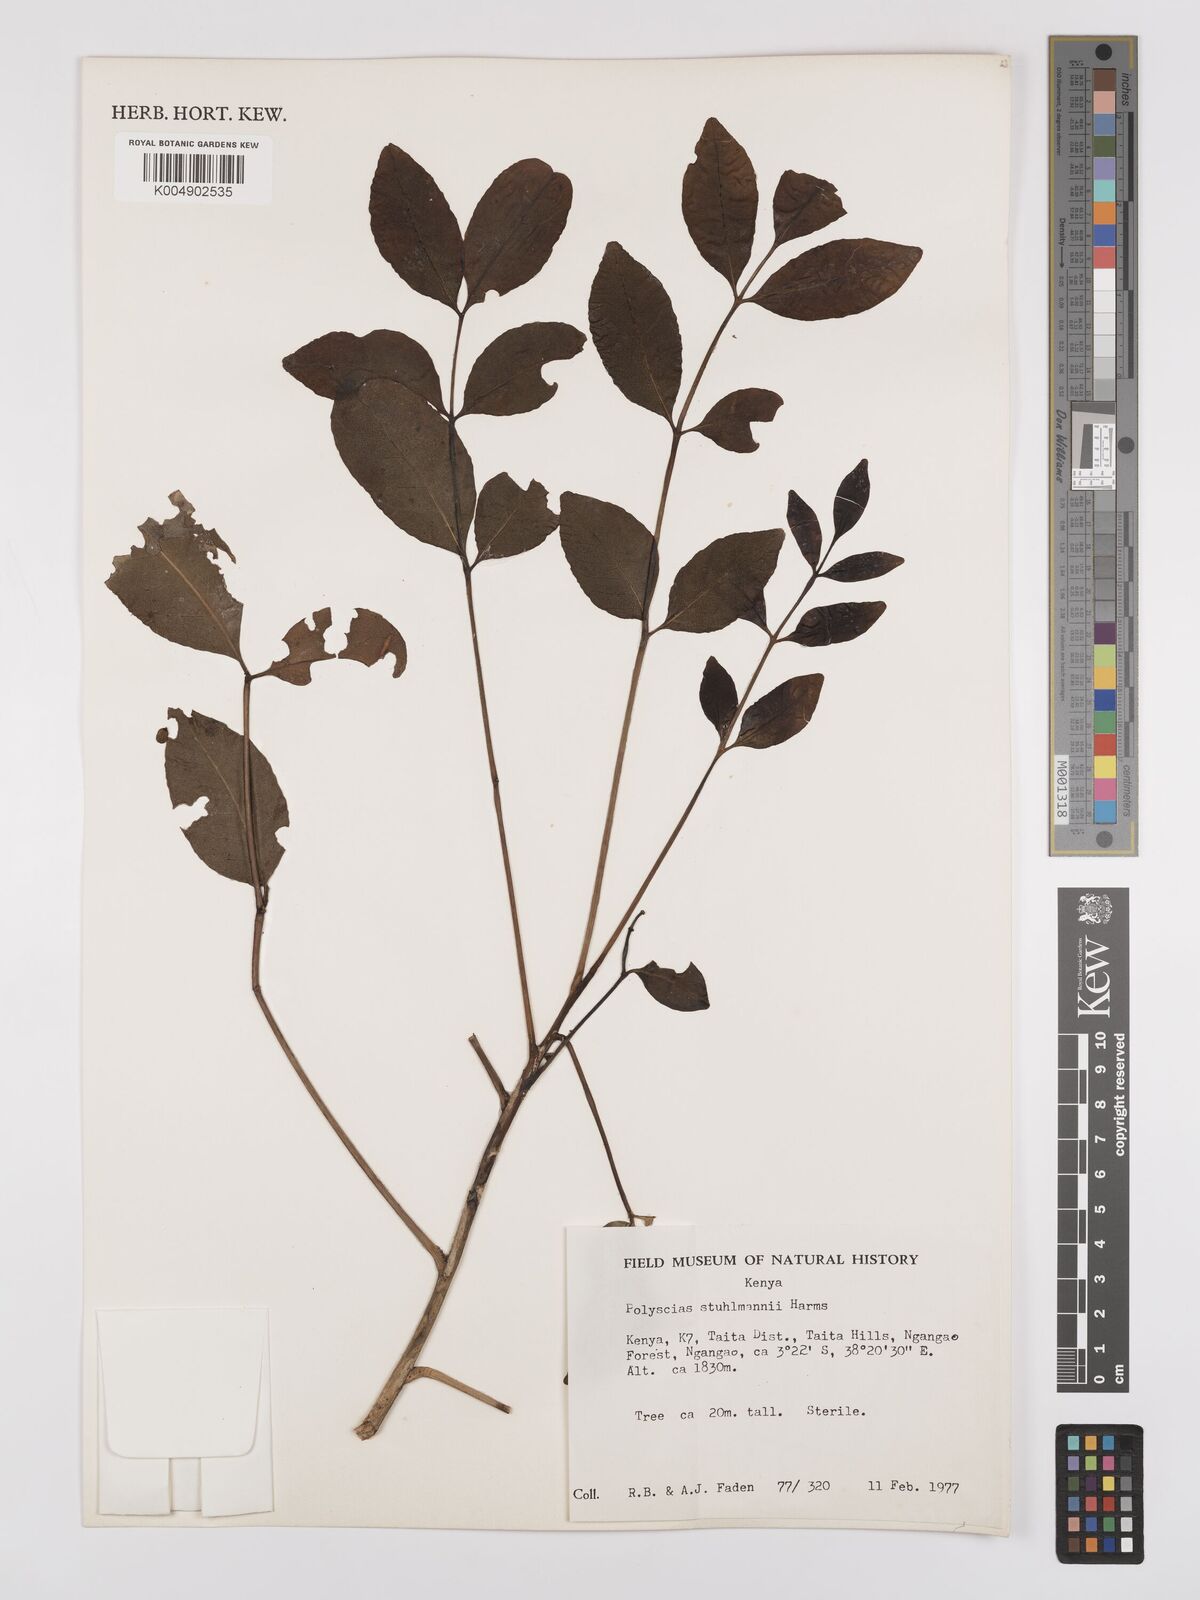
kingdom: Plantae
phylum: Tracheophyta
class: Magnoliopsida
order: Apiales
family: Araliaceae
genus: Polyscias
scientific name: Polyscias stuhlmannii
